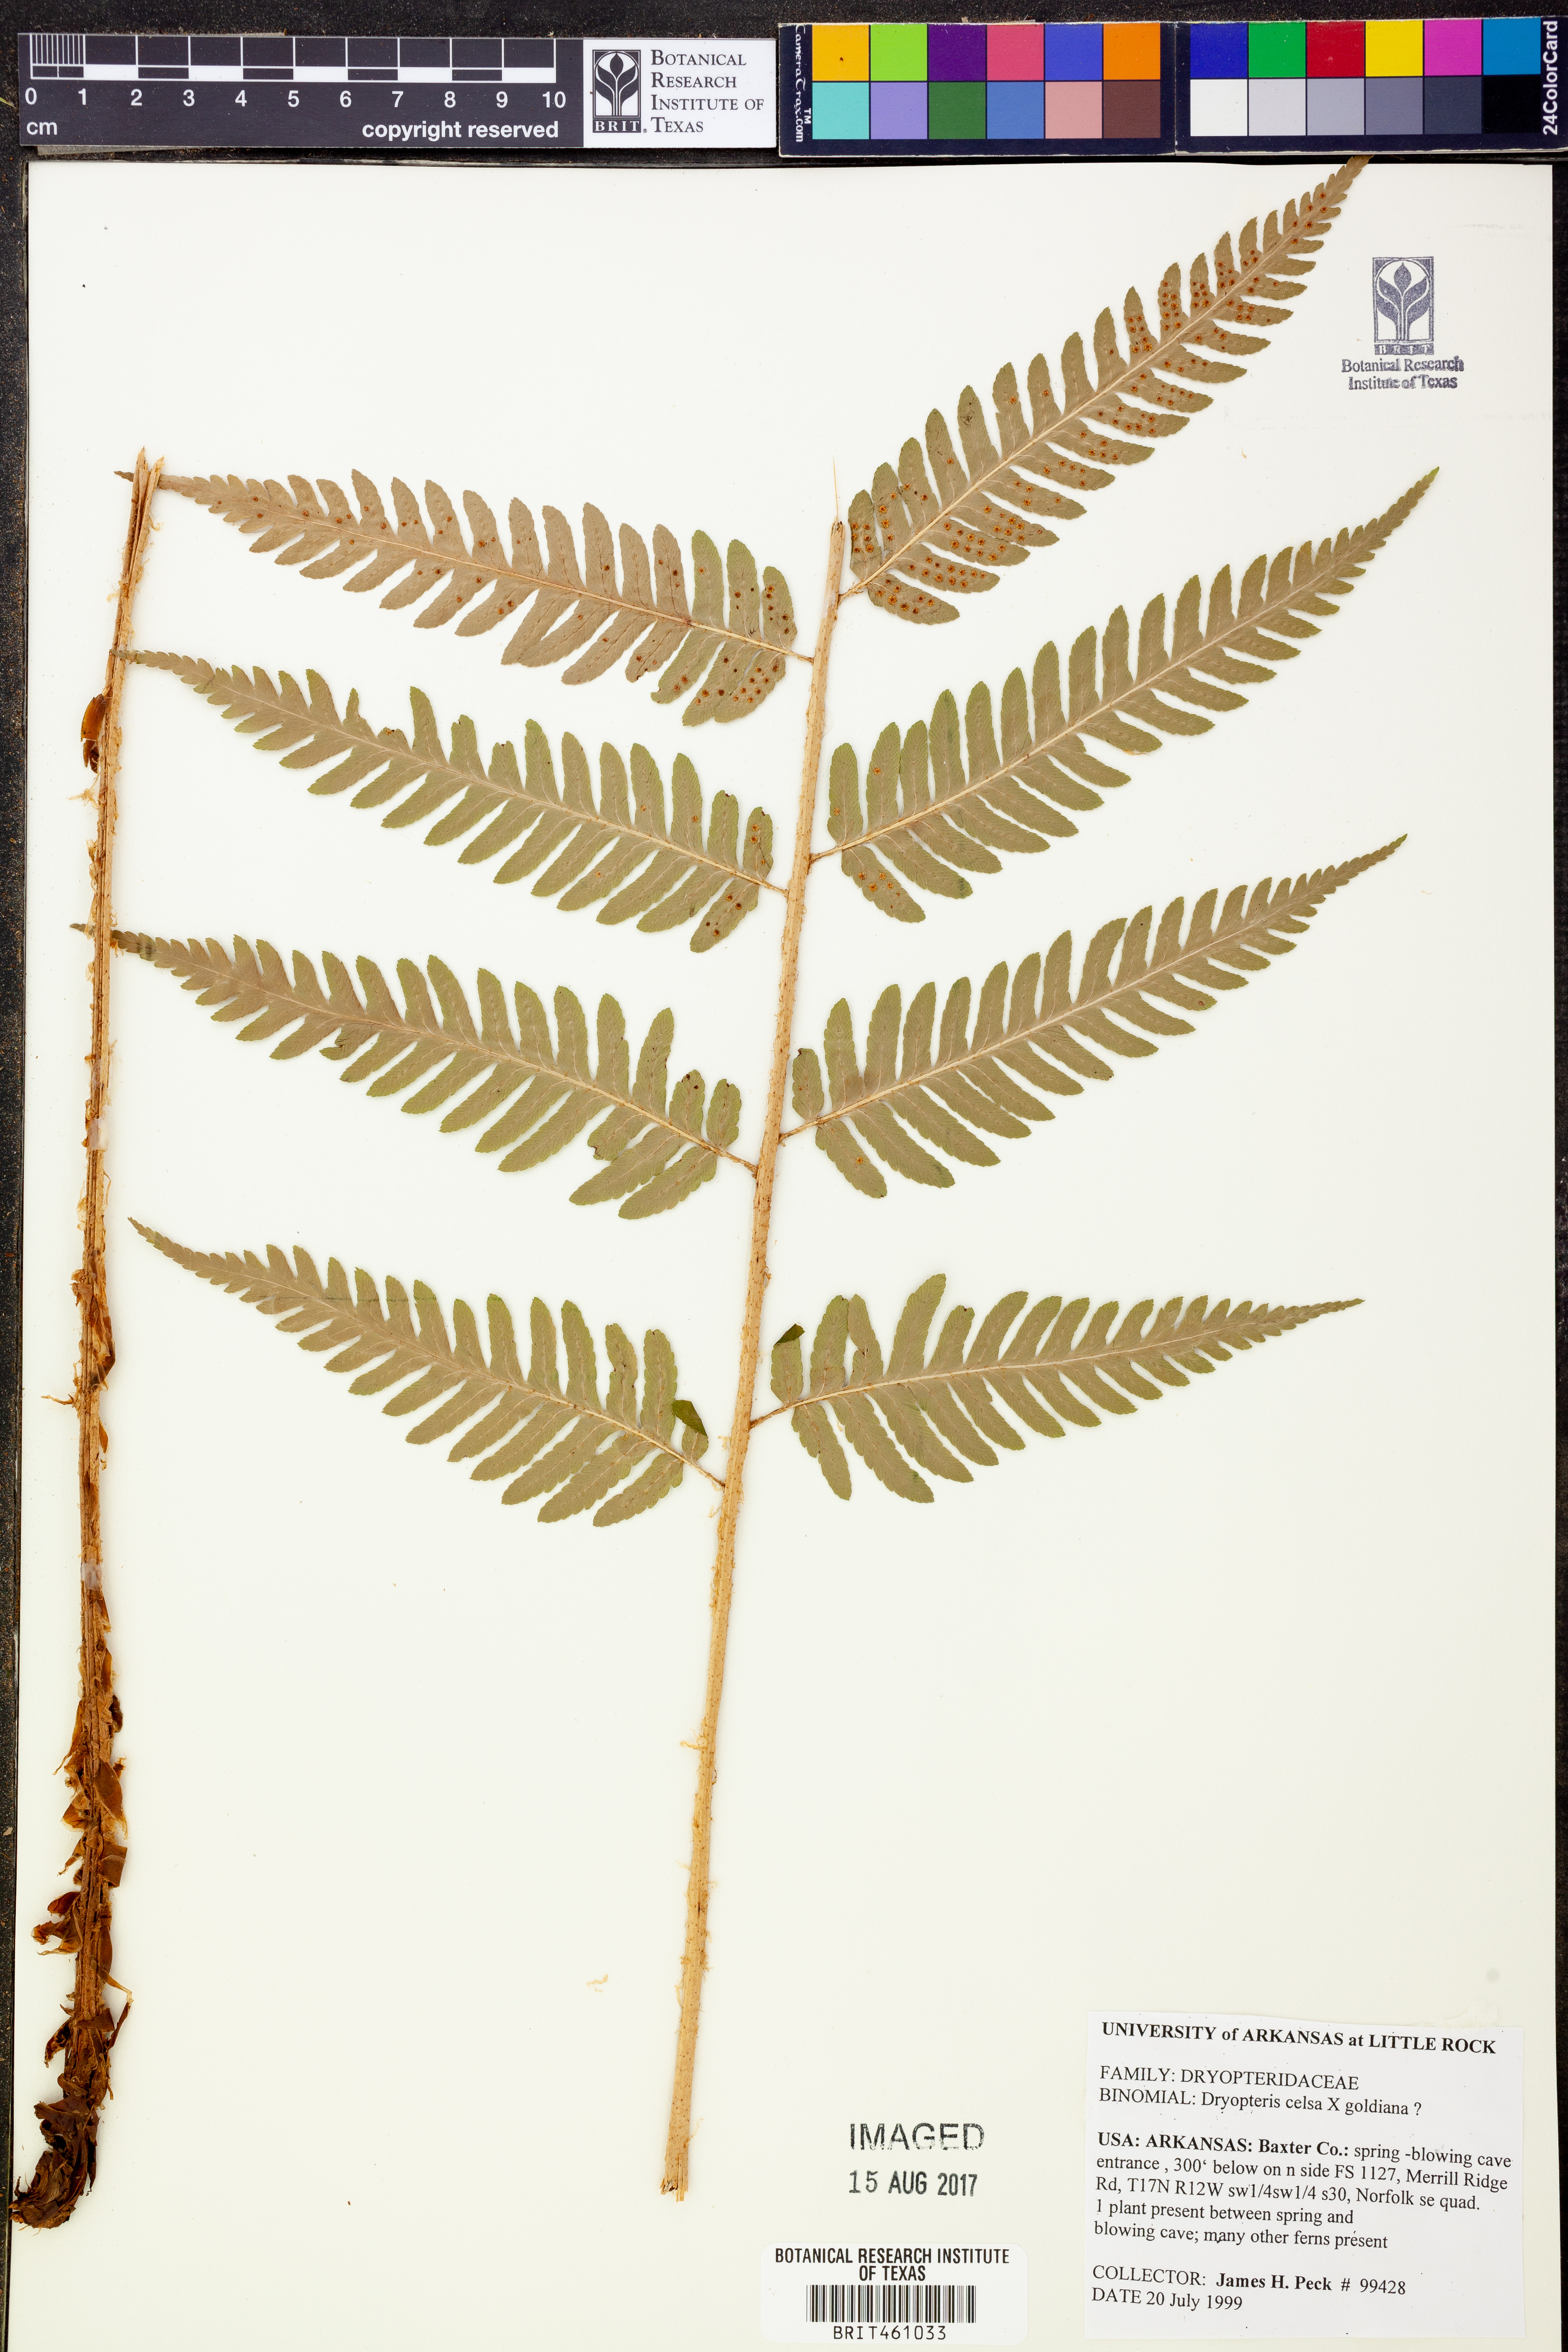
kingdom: Plantae
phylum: Tracheophyta
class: Polypodiopsida
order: Polypodiales
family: Dryopteridaceae
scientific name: Dryopteridaceae
